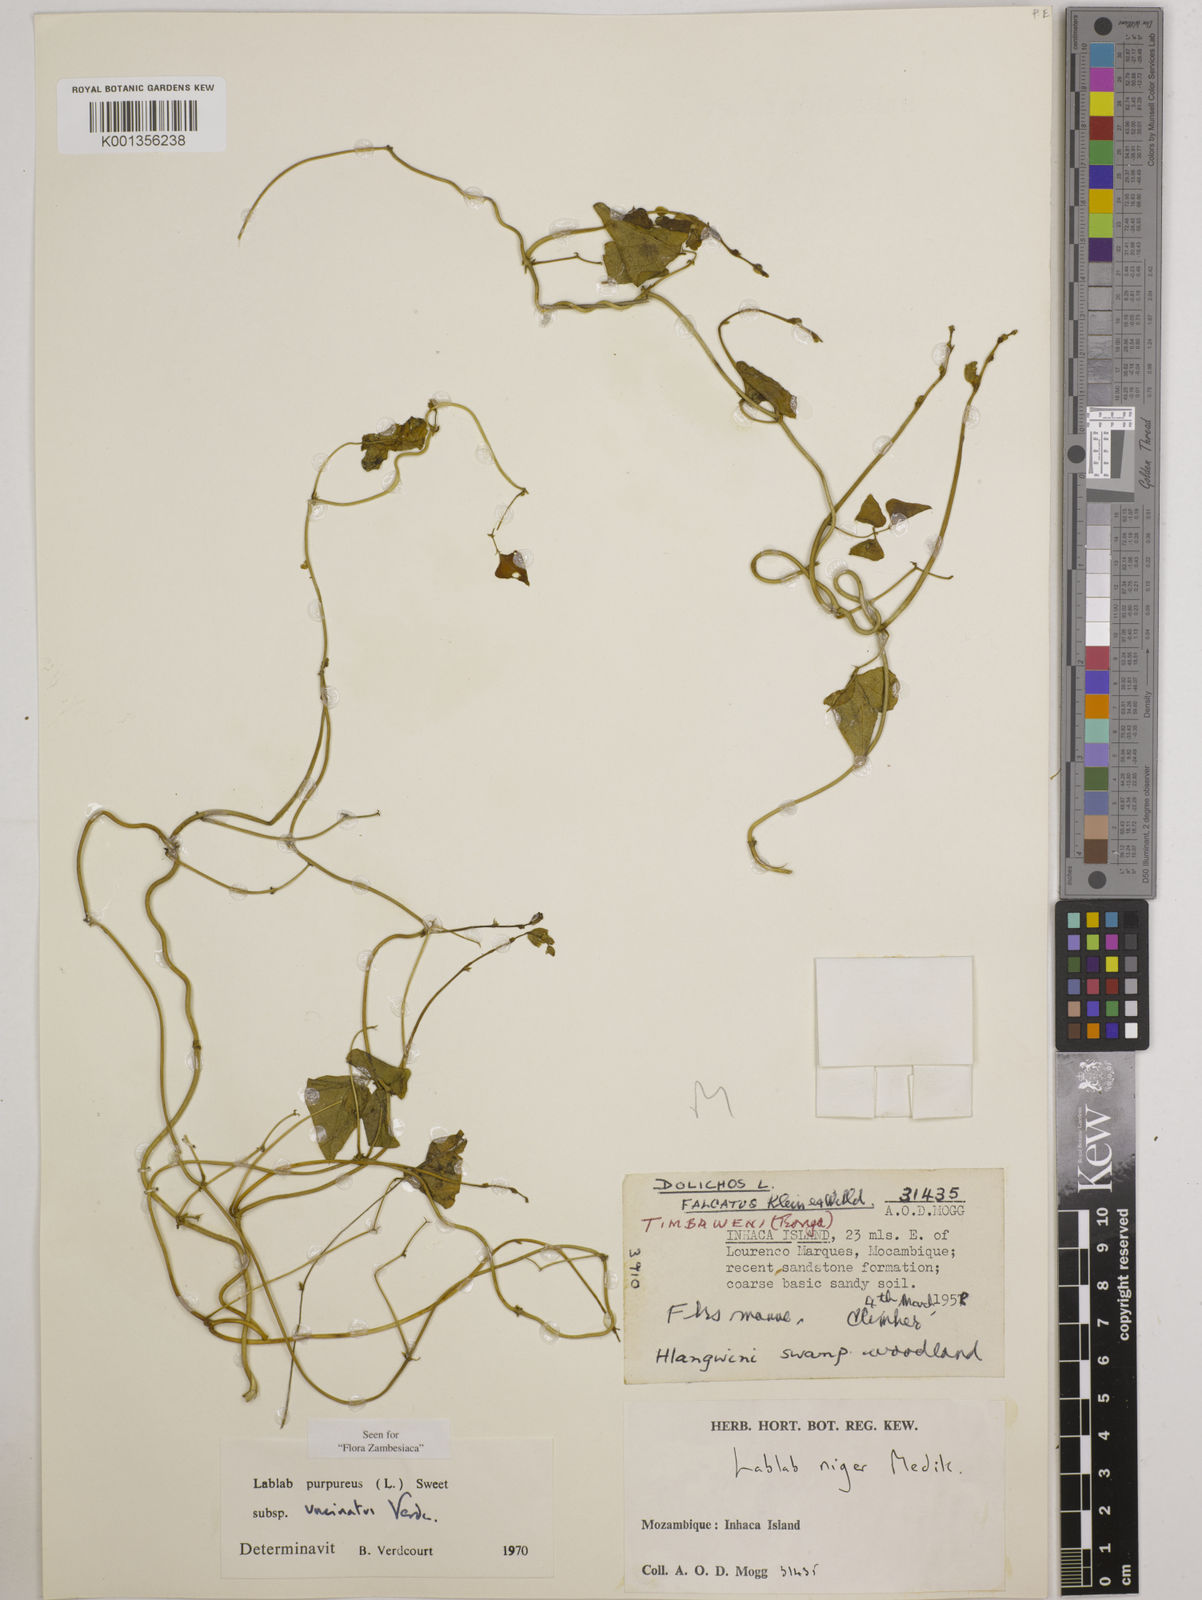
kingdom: Plantae
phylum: Tracheophyta
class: Magnoliopsida
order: Fabales
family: Fabaceae
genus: Lablab
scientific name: Lablab purpureus
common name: Lablab-bean
